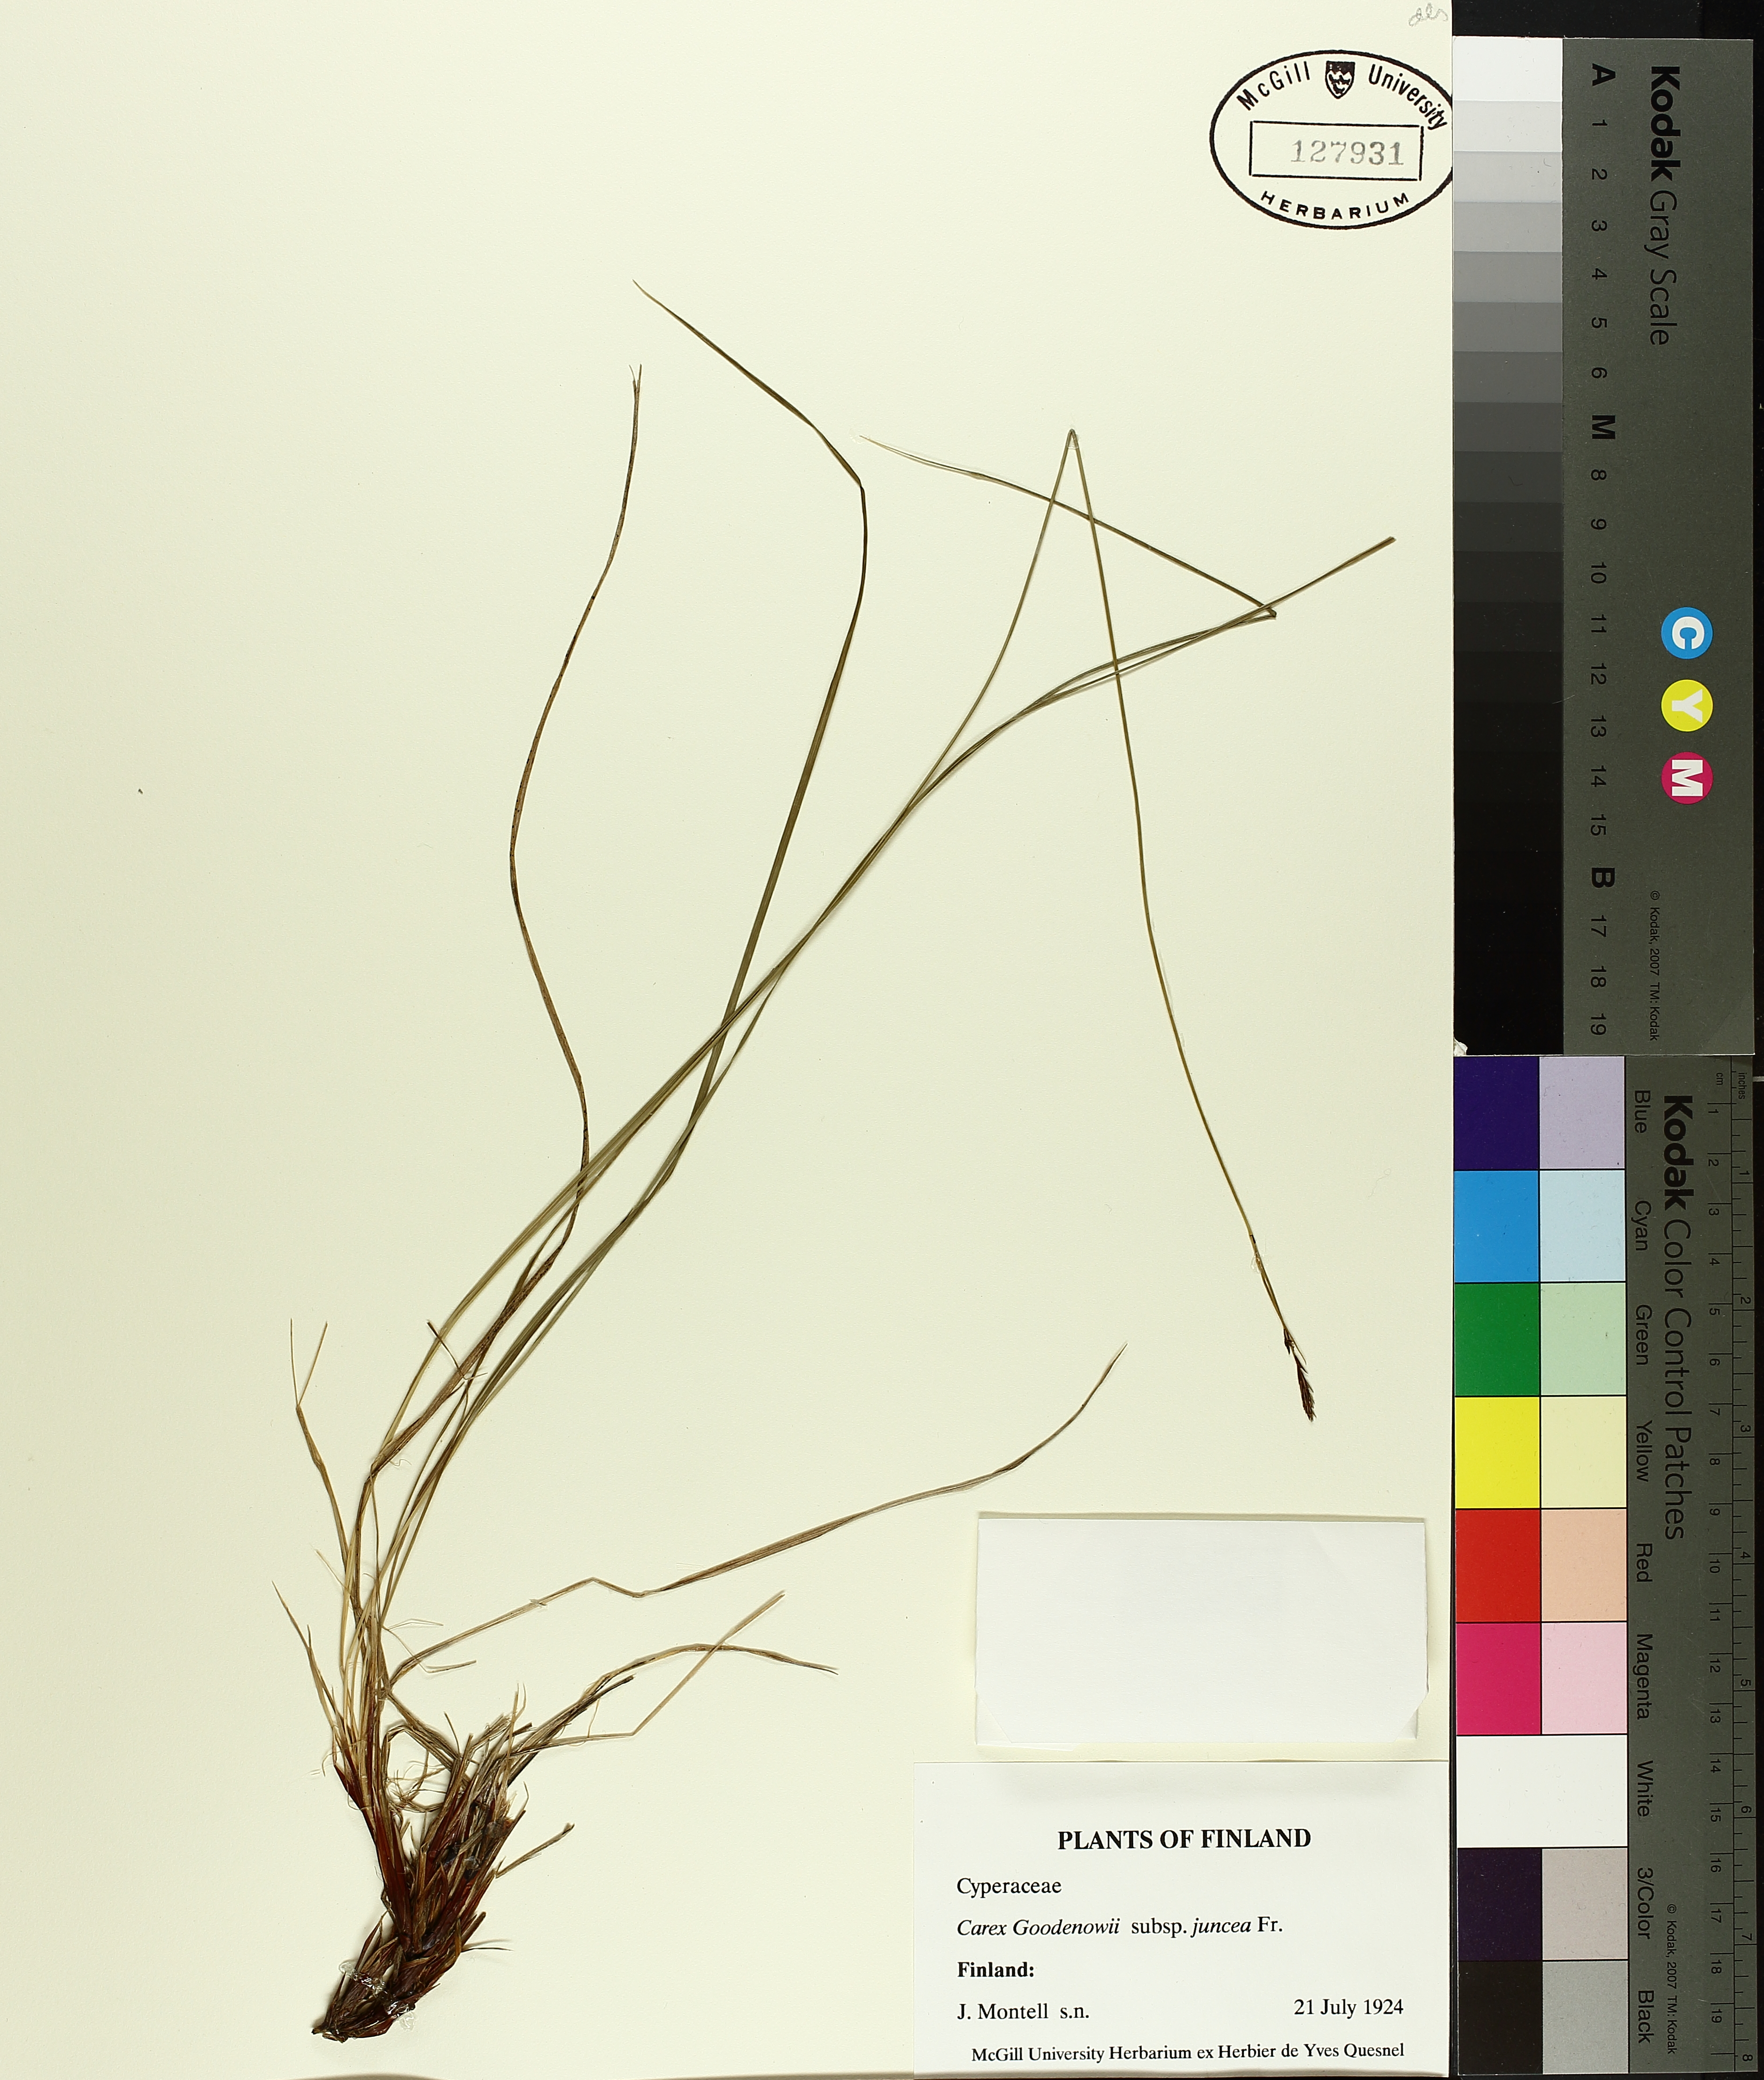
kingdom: Plantae
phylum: Tracheophyta
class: Liliopsida
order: Poales
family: Cyperaceae
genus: Carex
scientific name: Carex nigra
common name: Common sedge
